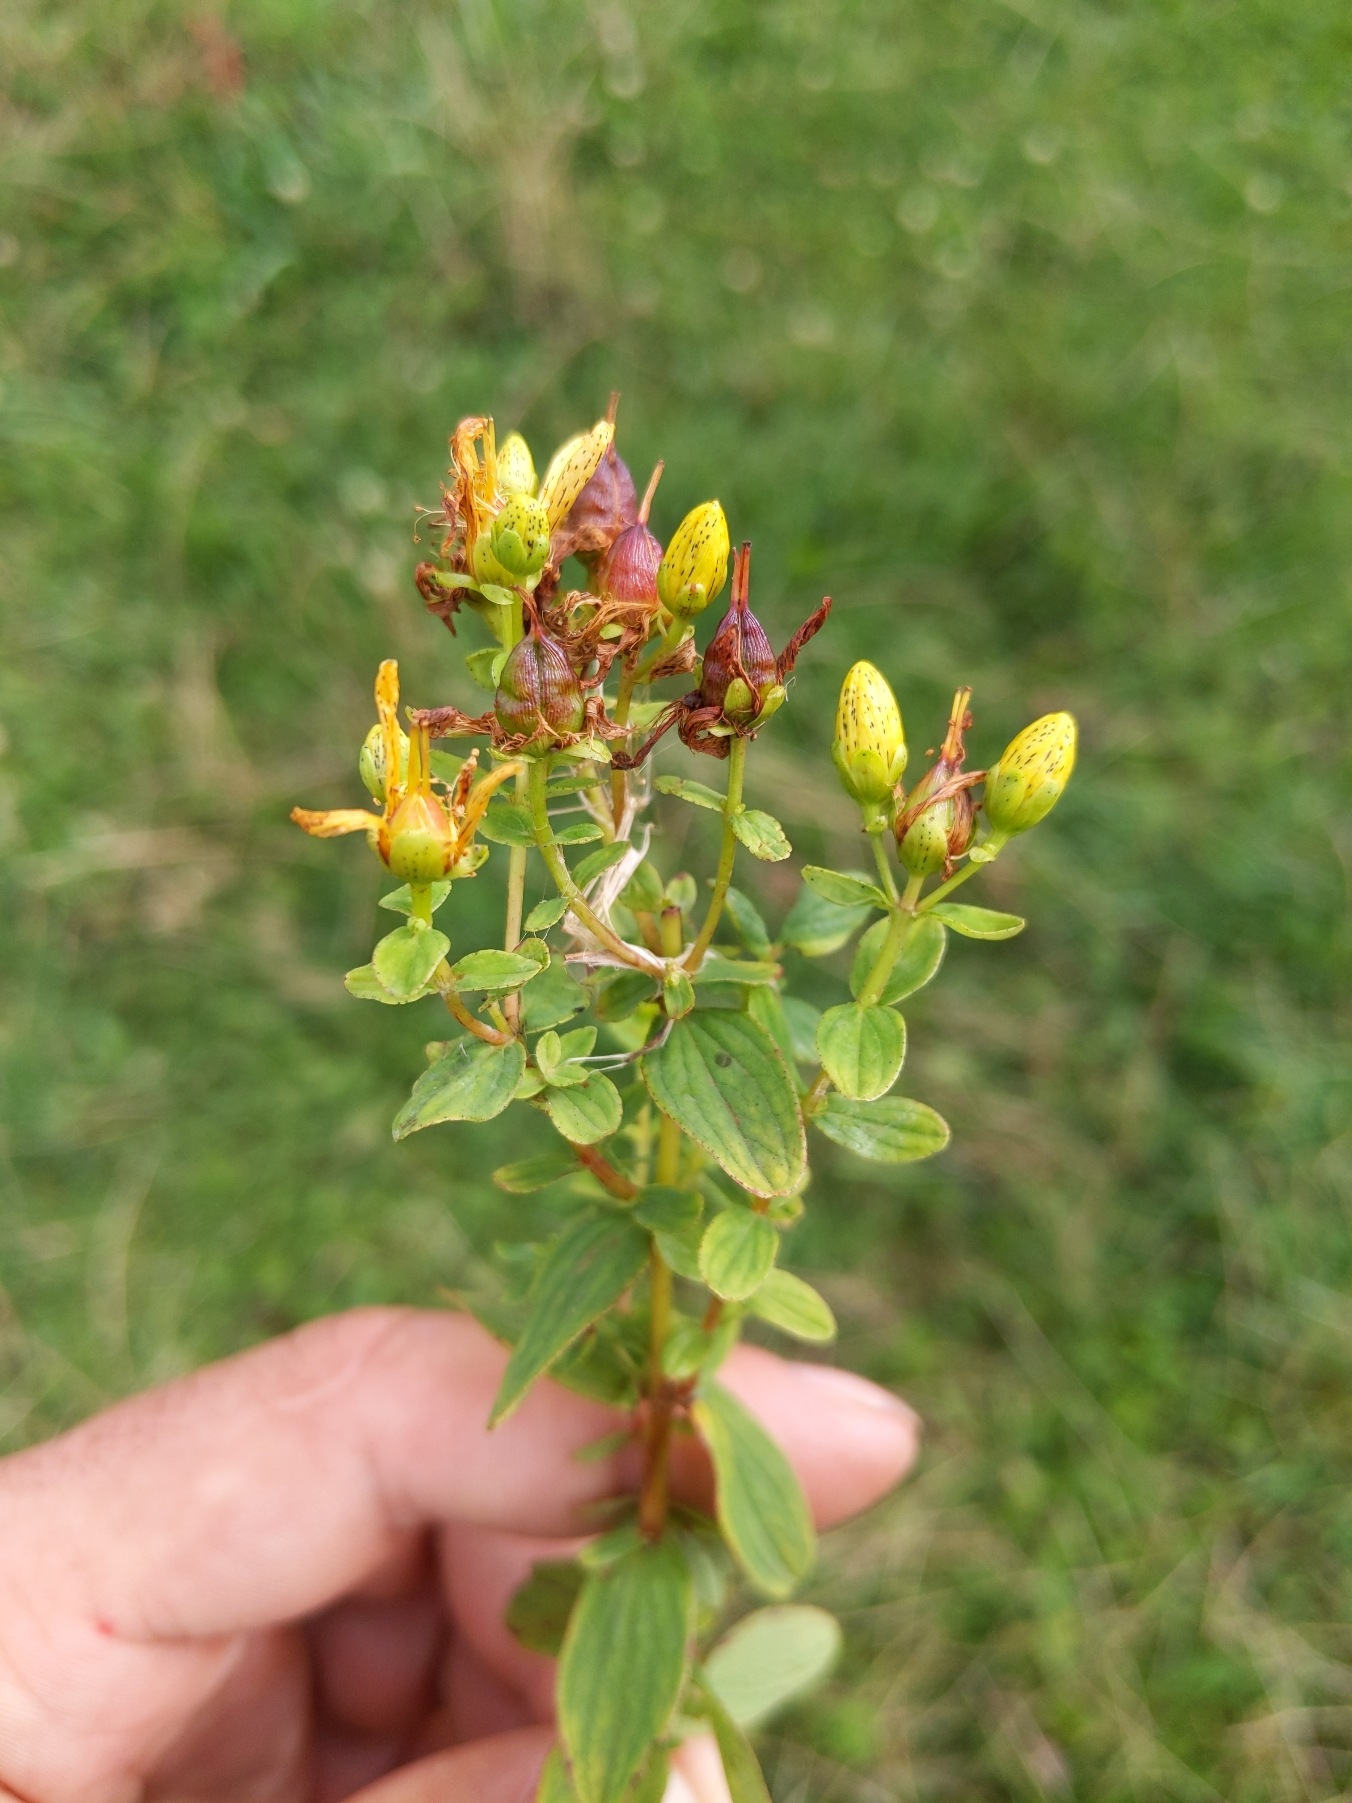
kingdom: Plantae
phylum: Tracheophyta
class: Magnoliopsida
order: Malpighiales
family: Hypericaceae
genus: Hypericum
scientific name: Hypericum maculatum
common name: Kantet perikon
